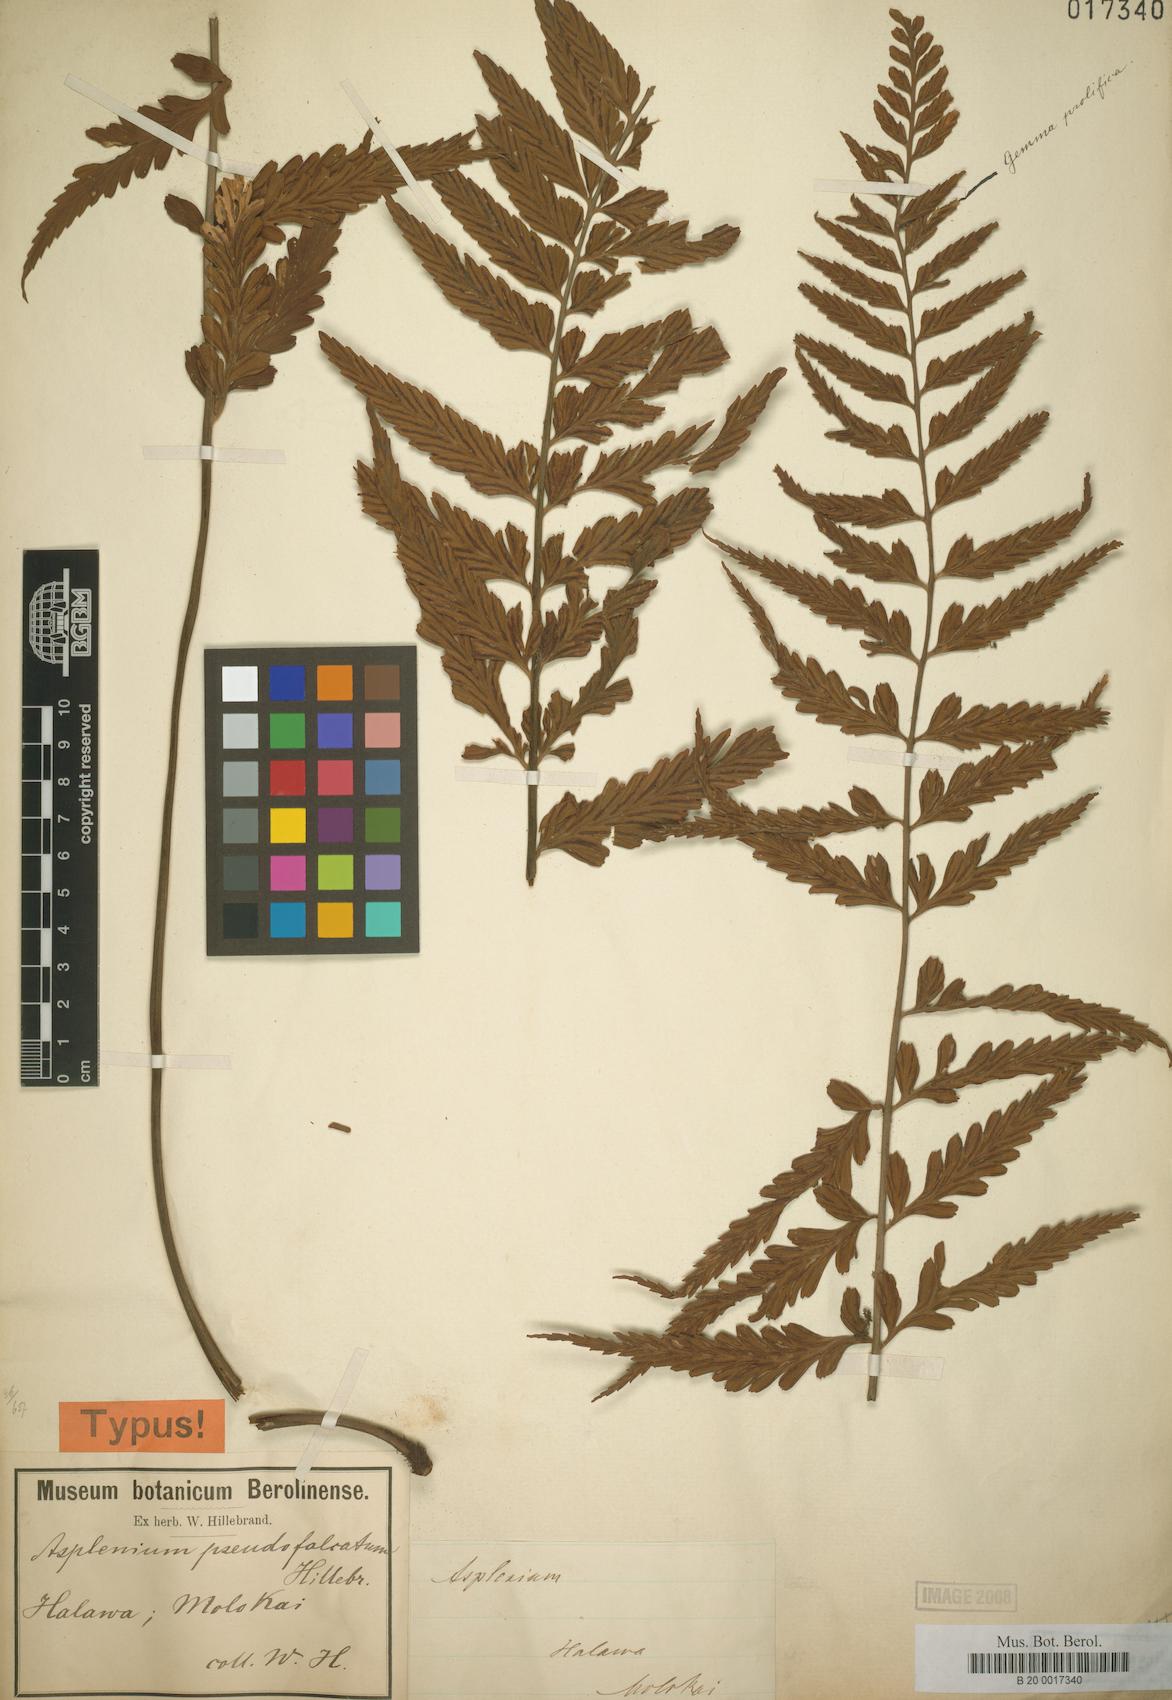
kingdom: Plantae
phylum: Tracheophyta
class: Polypodiopsida
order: Polypodiales
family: Aspleniaceae
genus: Asplenium
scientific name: Asplenium lobulatum
